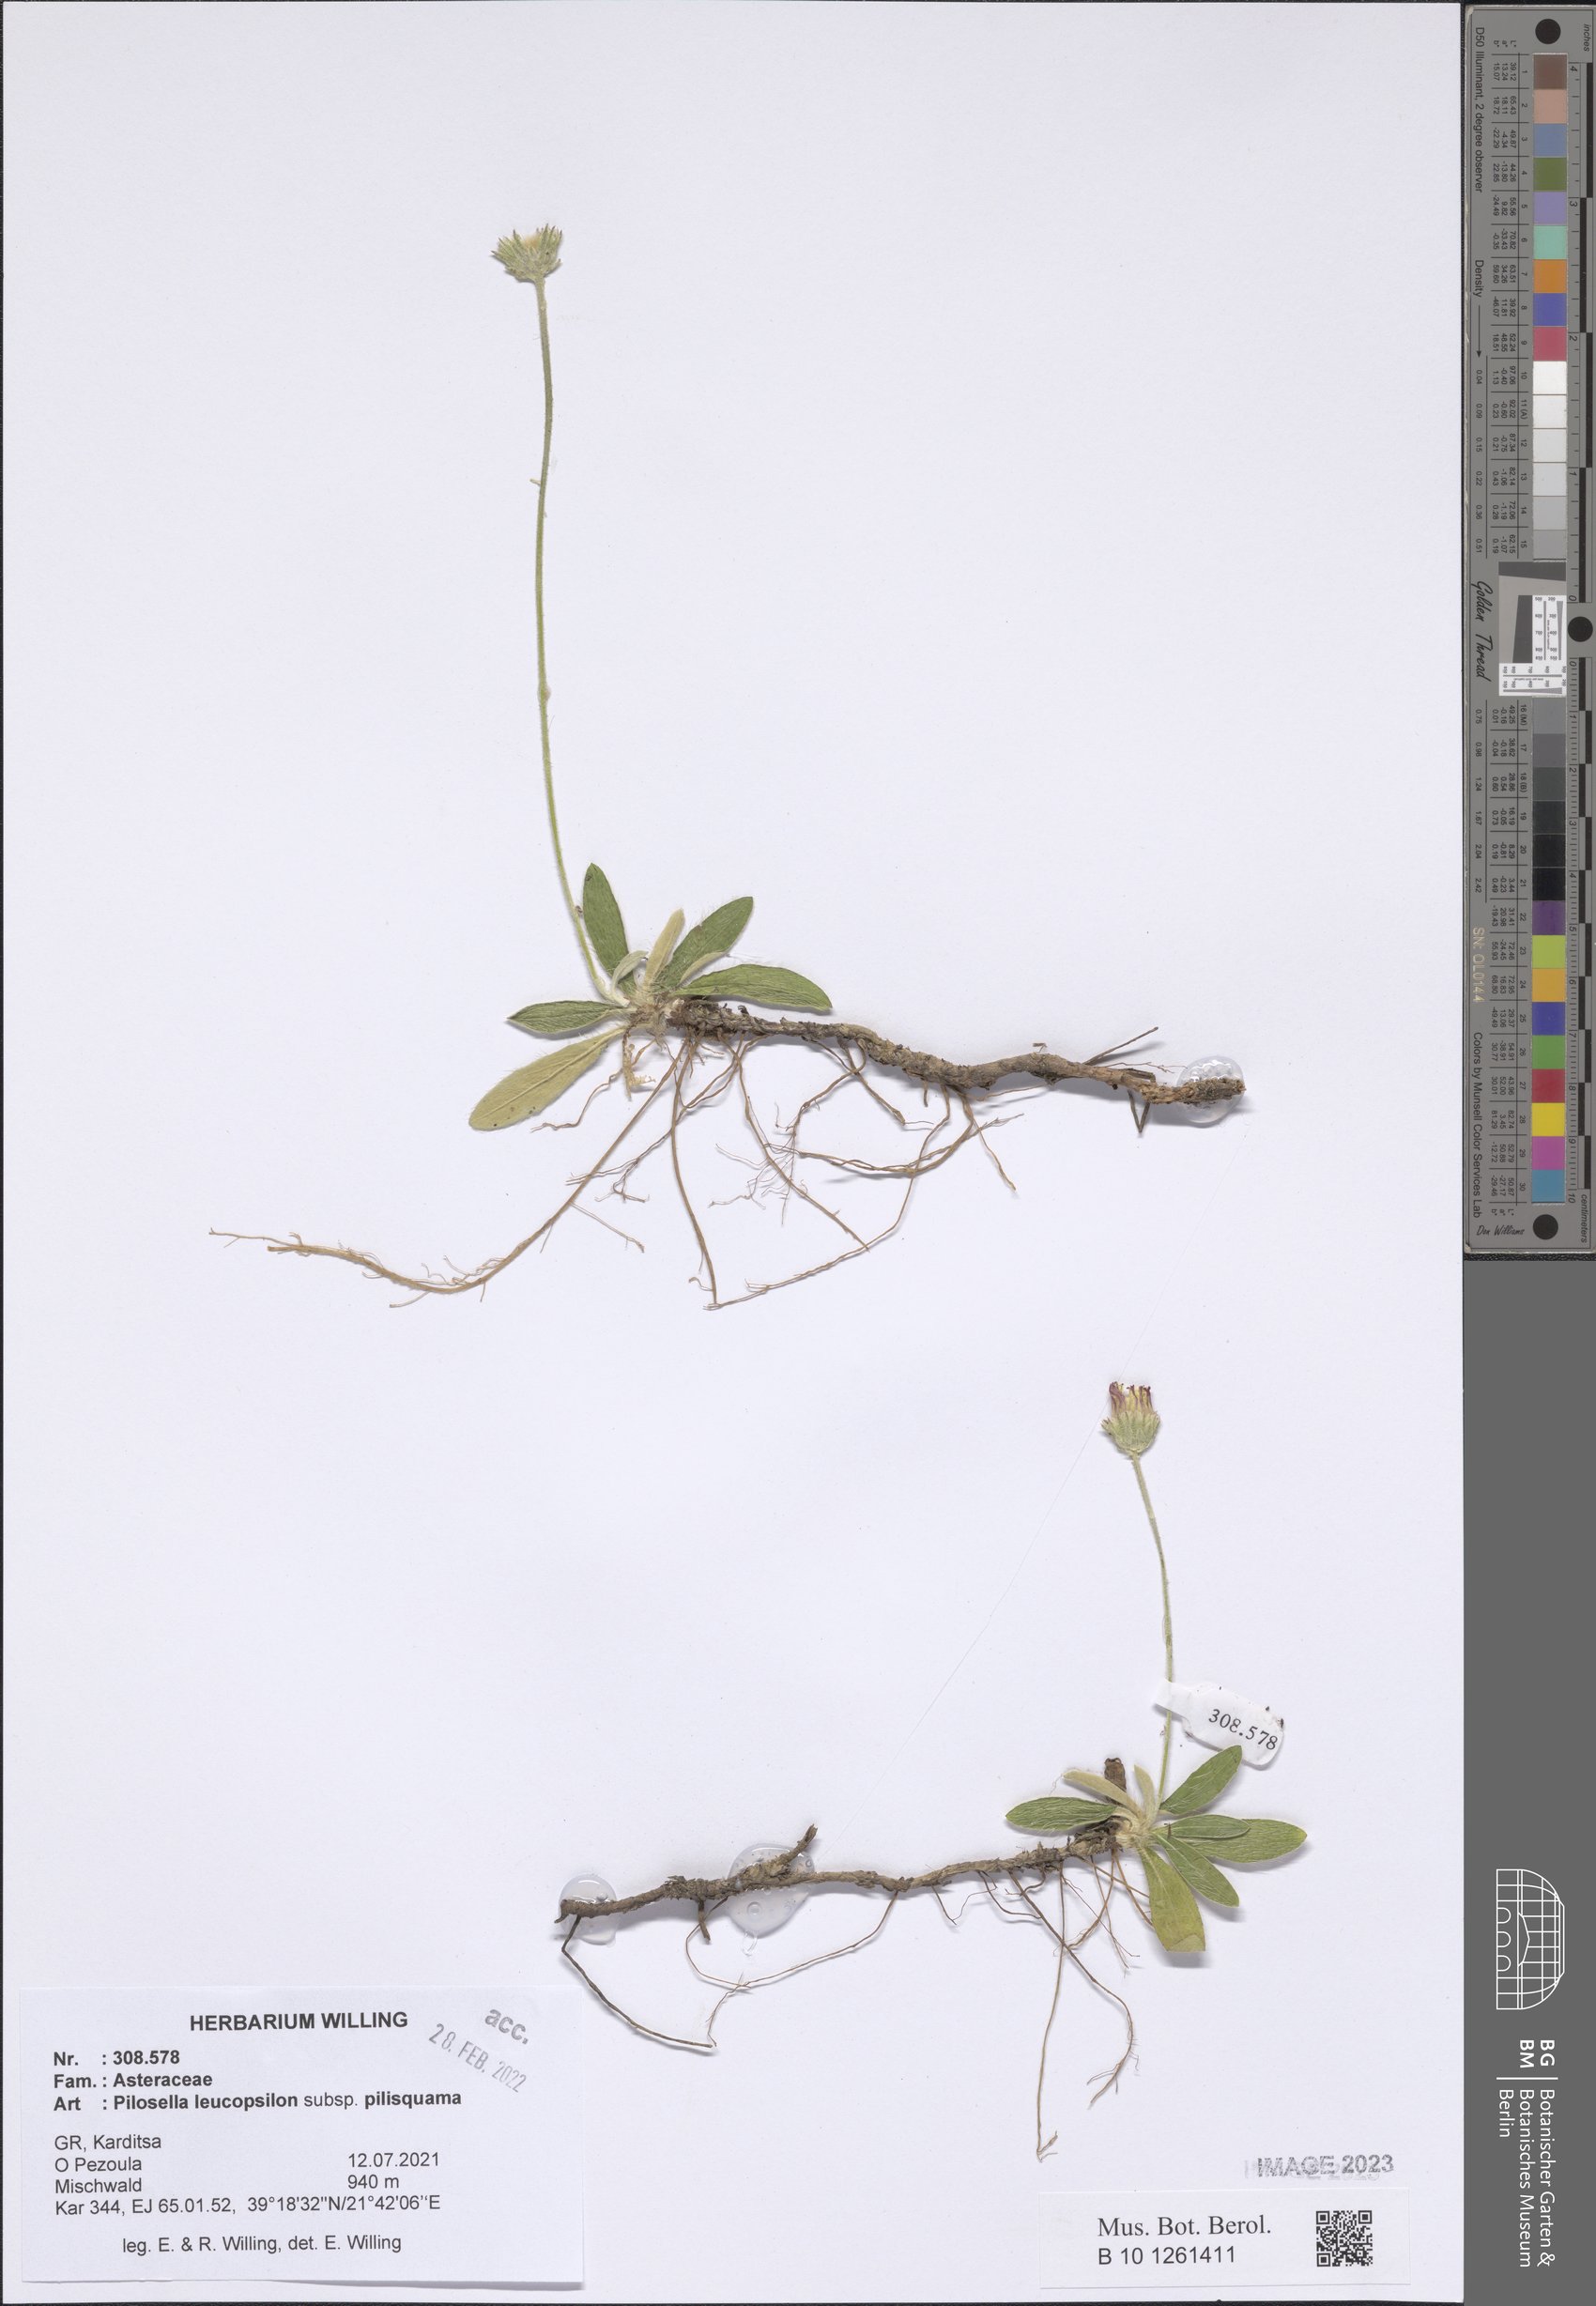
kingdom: Plantae
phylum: Tracheophyta
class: Magnoliopsida
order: Asterales
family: Asteraceae
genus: Pilosella
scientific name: Pilosella leucopsilon
